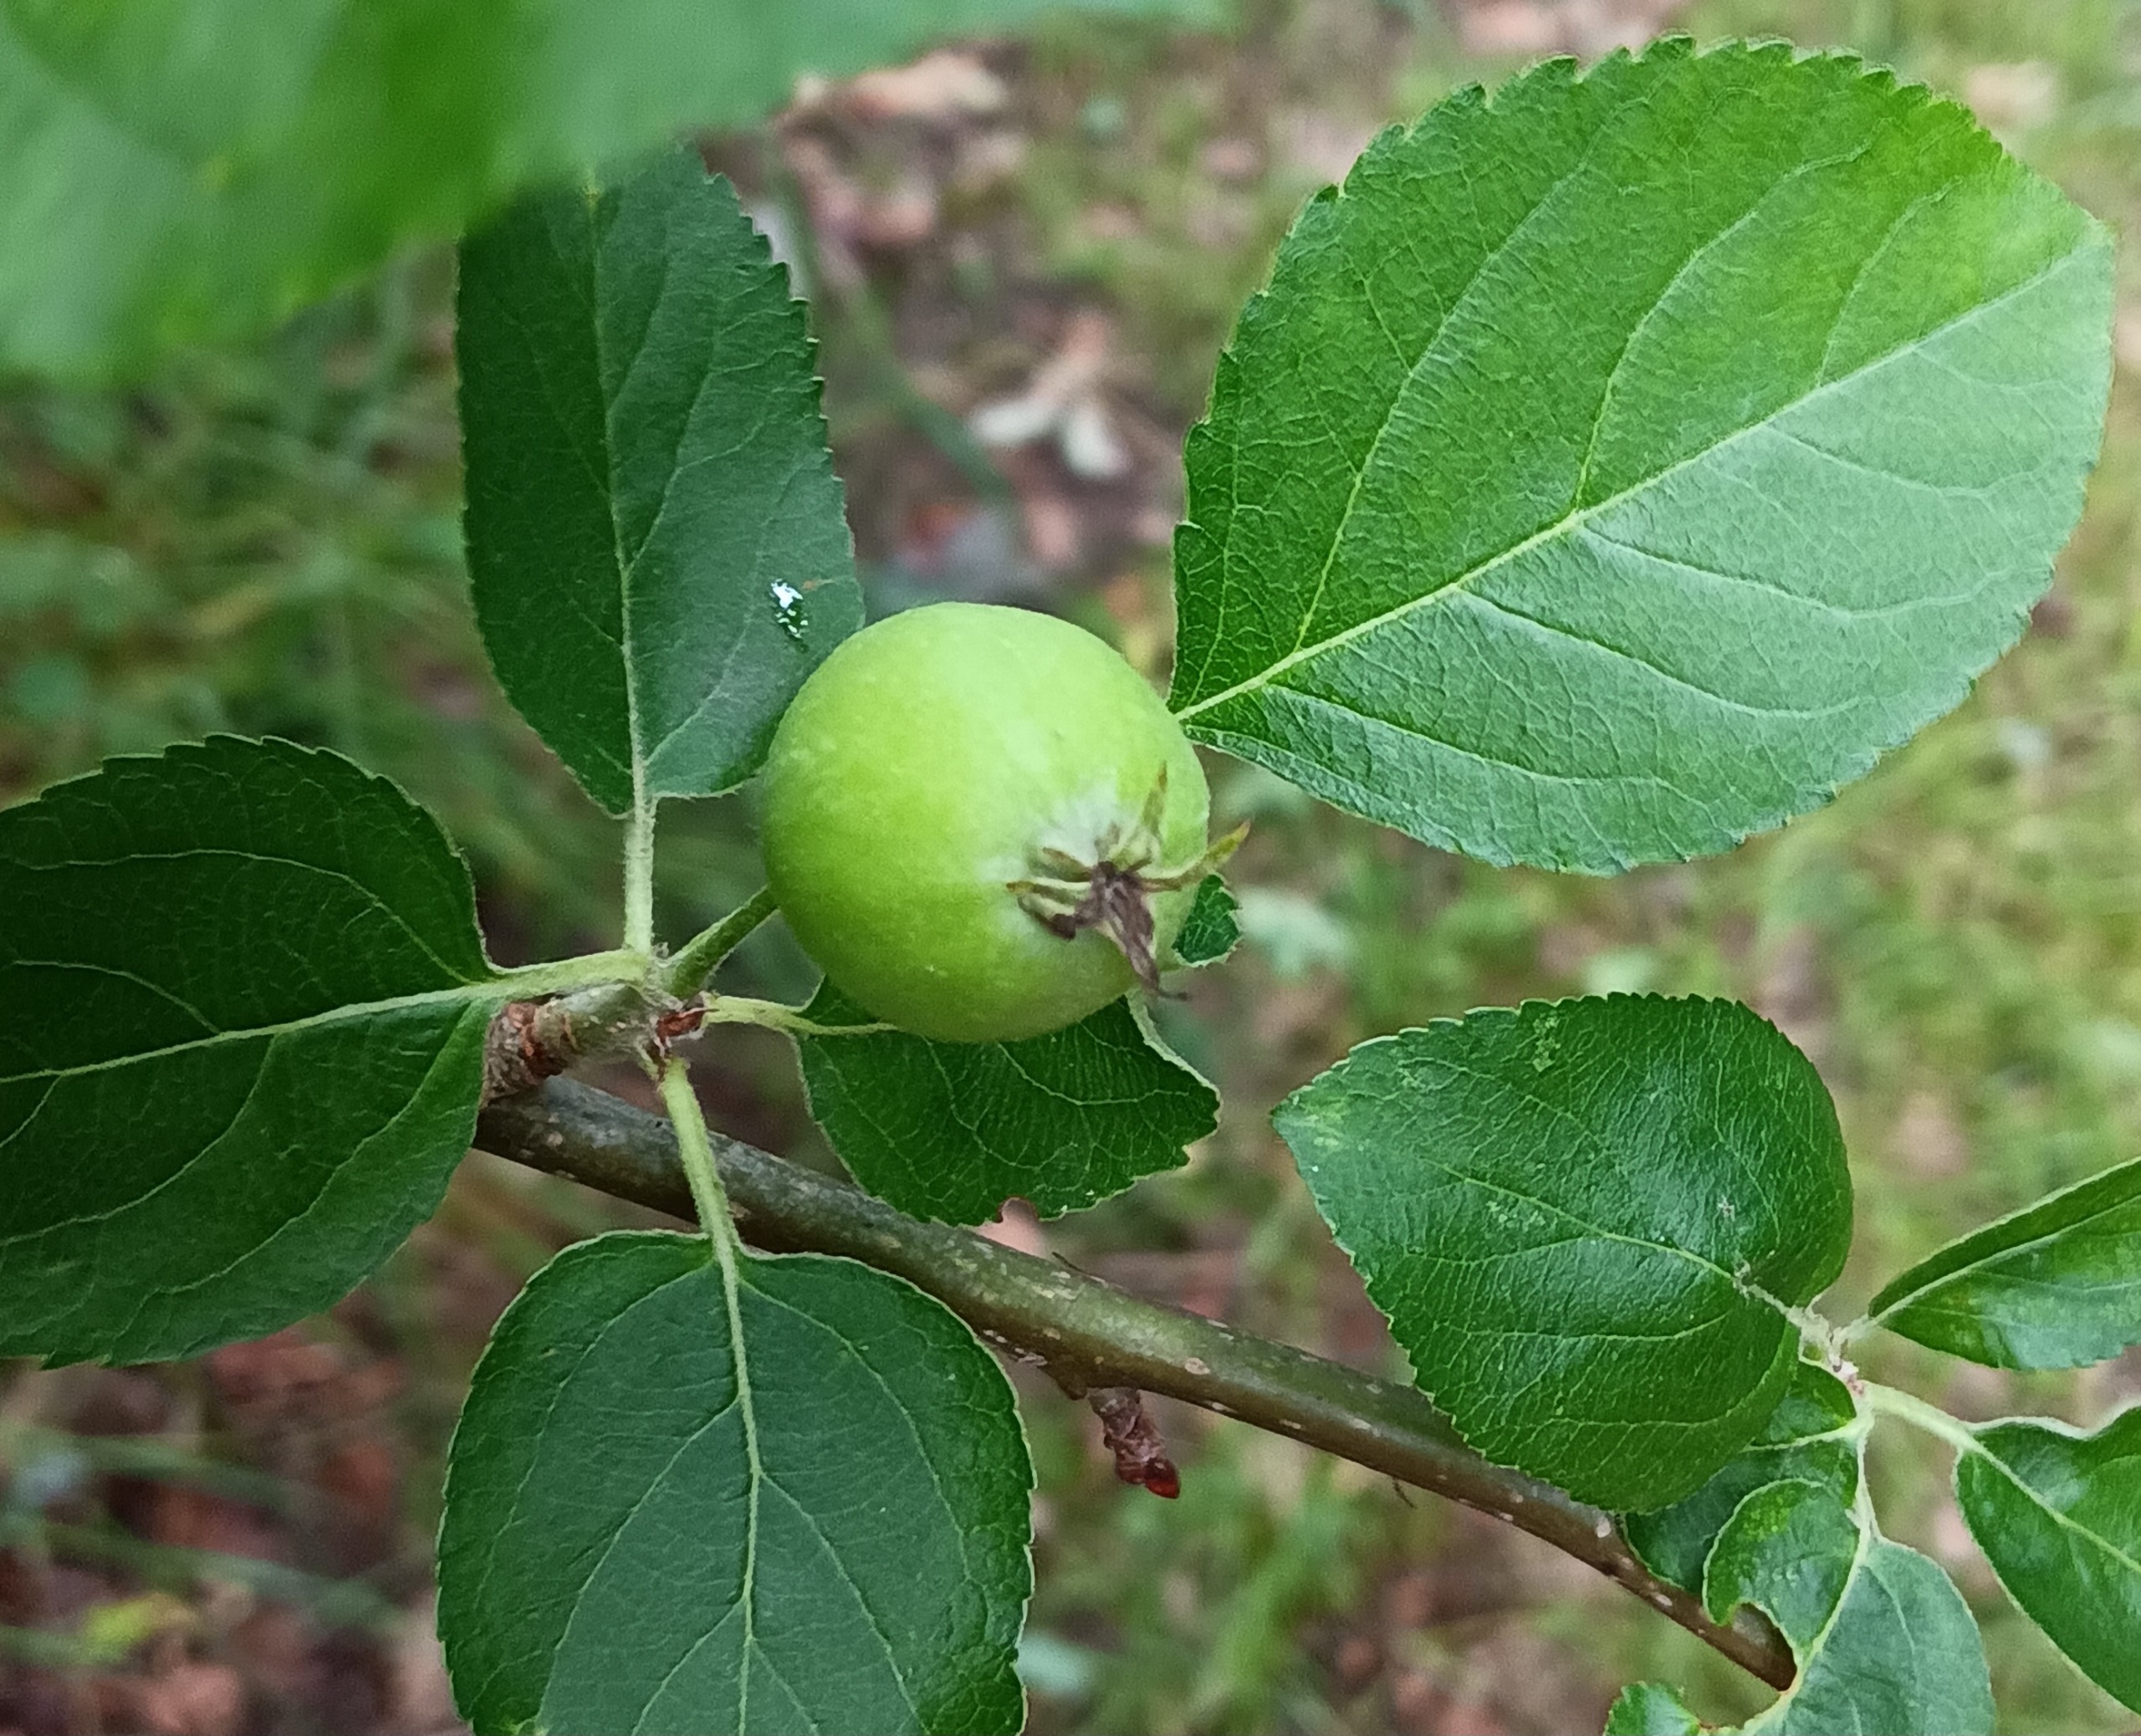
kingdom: Plantae
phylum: Tracheophyta
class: Magnoliopsida
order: Rosales
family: Rosaceae
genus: Malus
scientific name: Malus domestica
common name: Sød-æble
